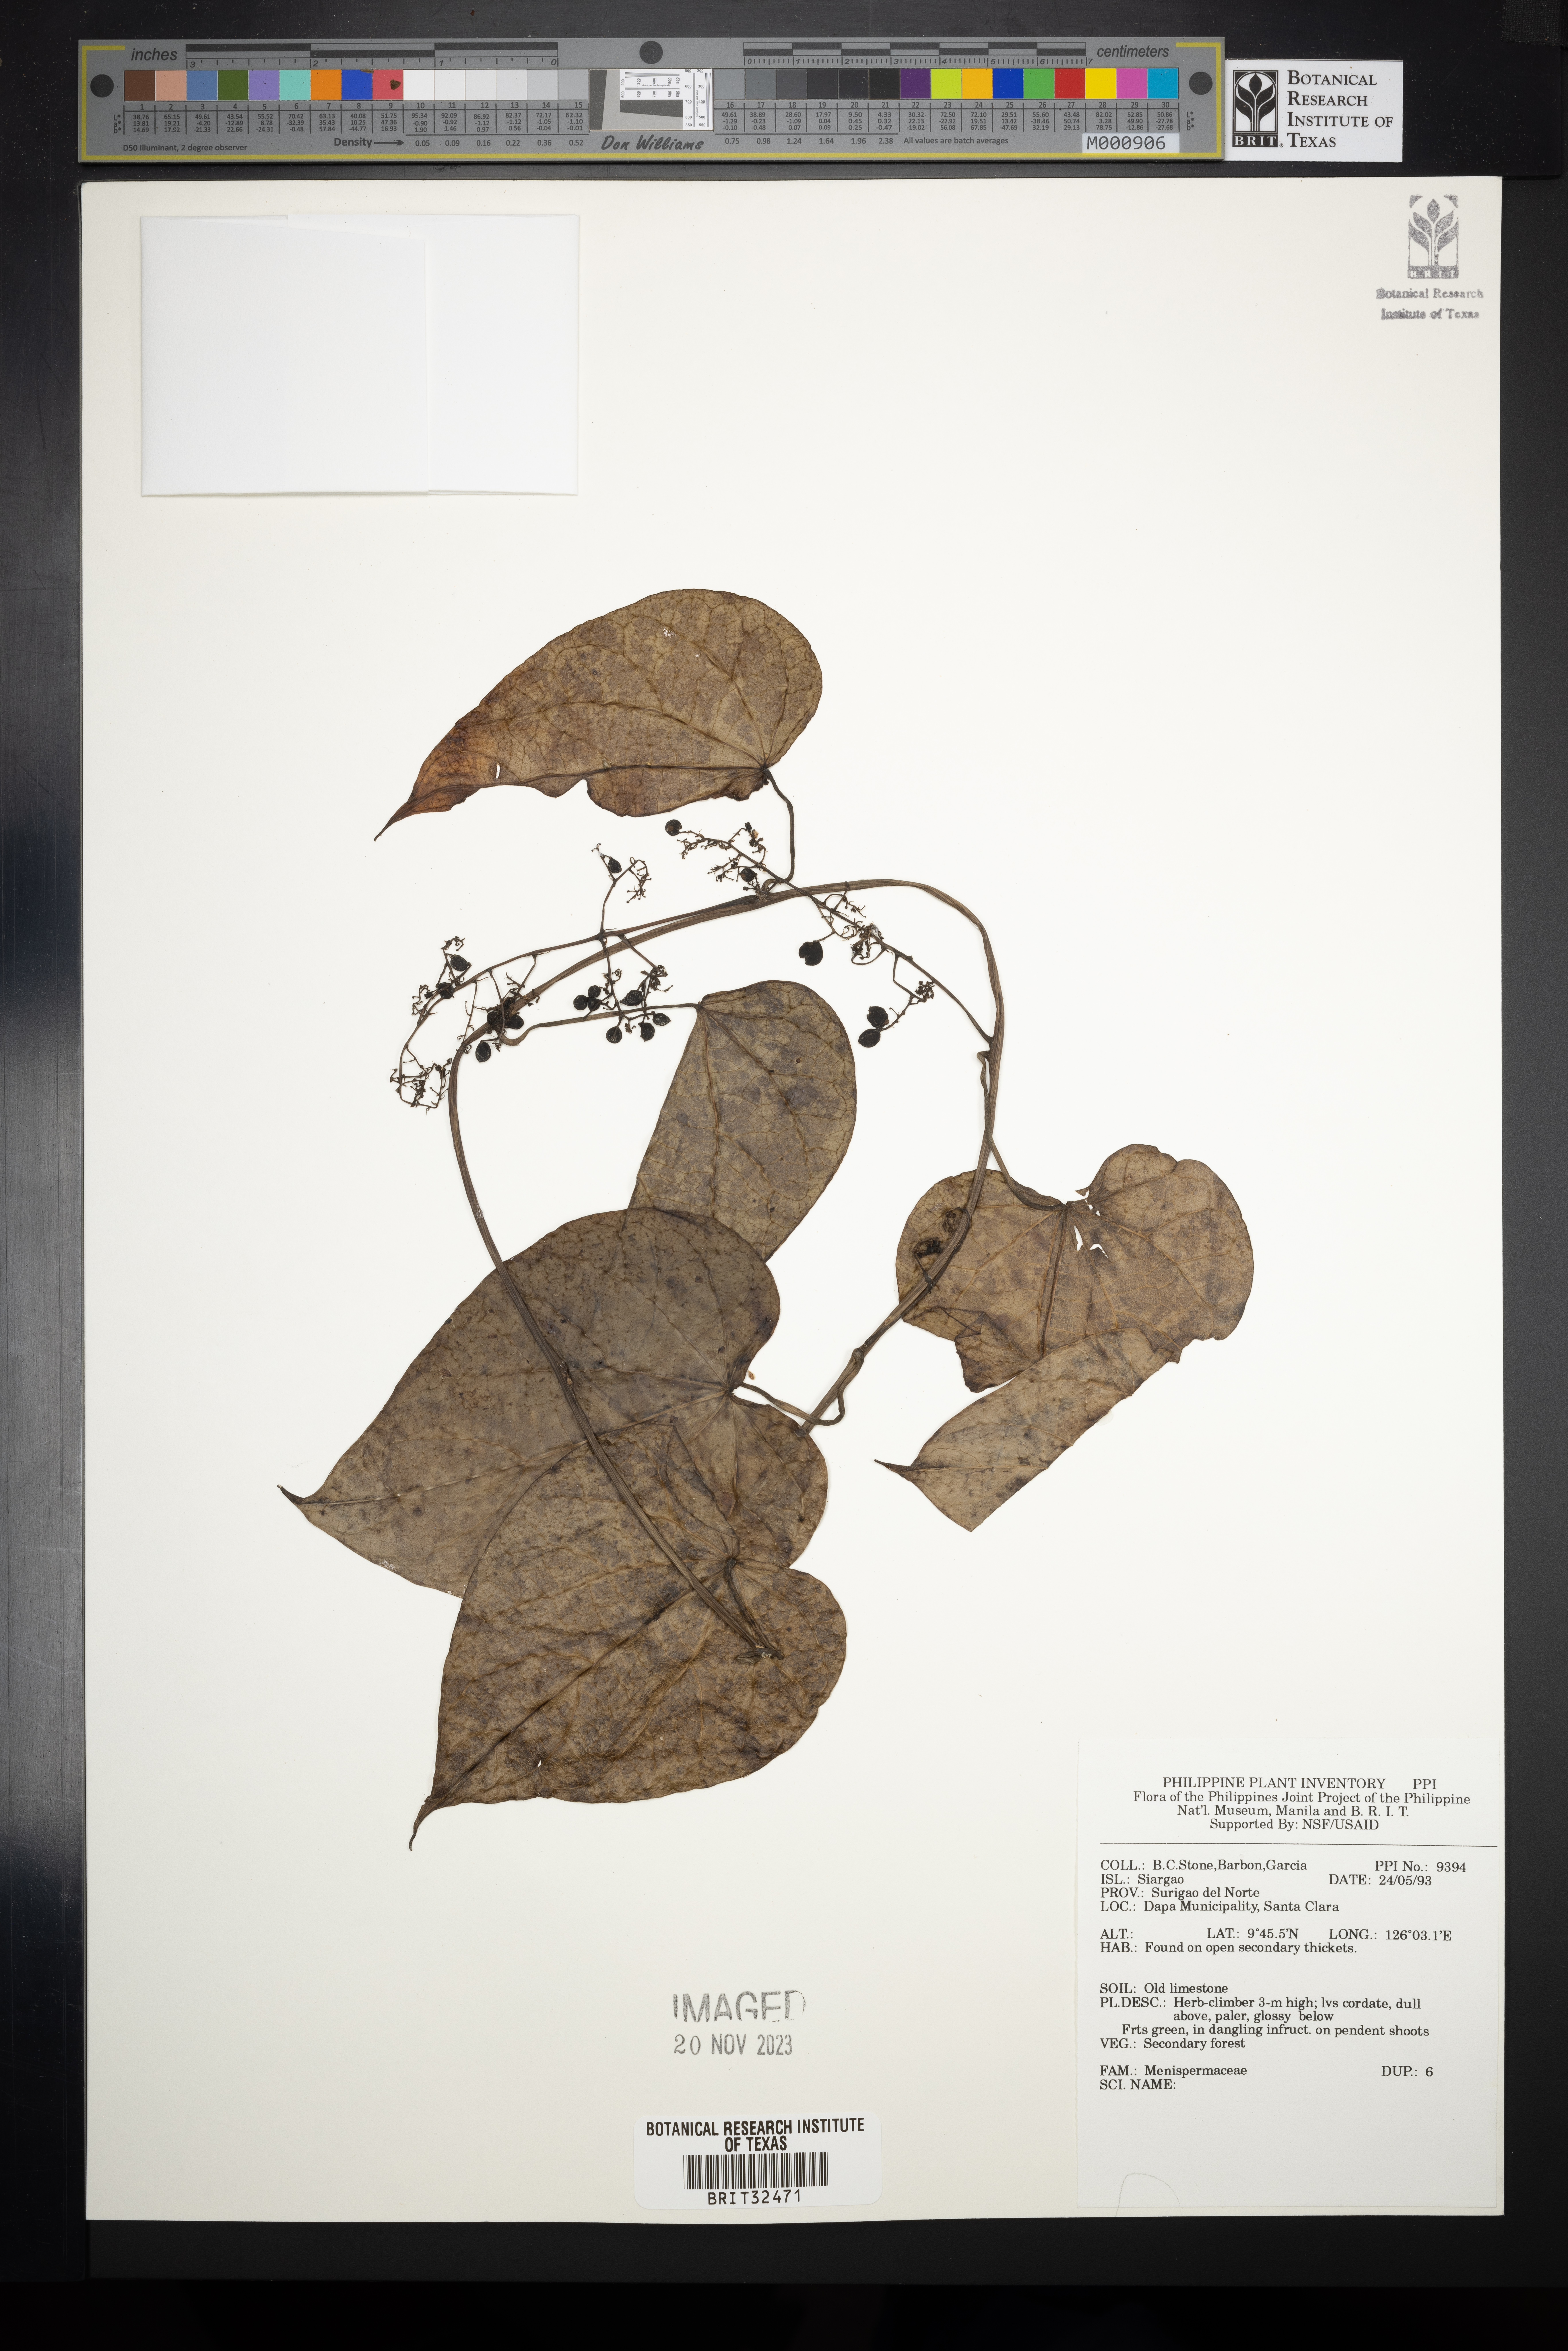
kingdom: Plantae
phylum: Tracheophyta
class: Magnoliopsida
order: Ranunculales
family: Menispermaceae
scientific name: Menispermaceae
